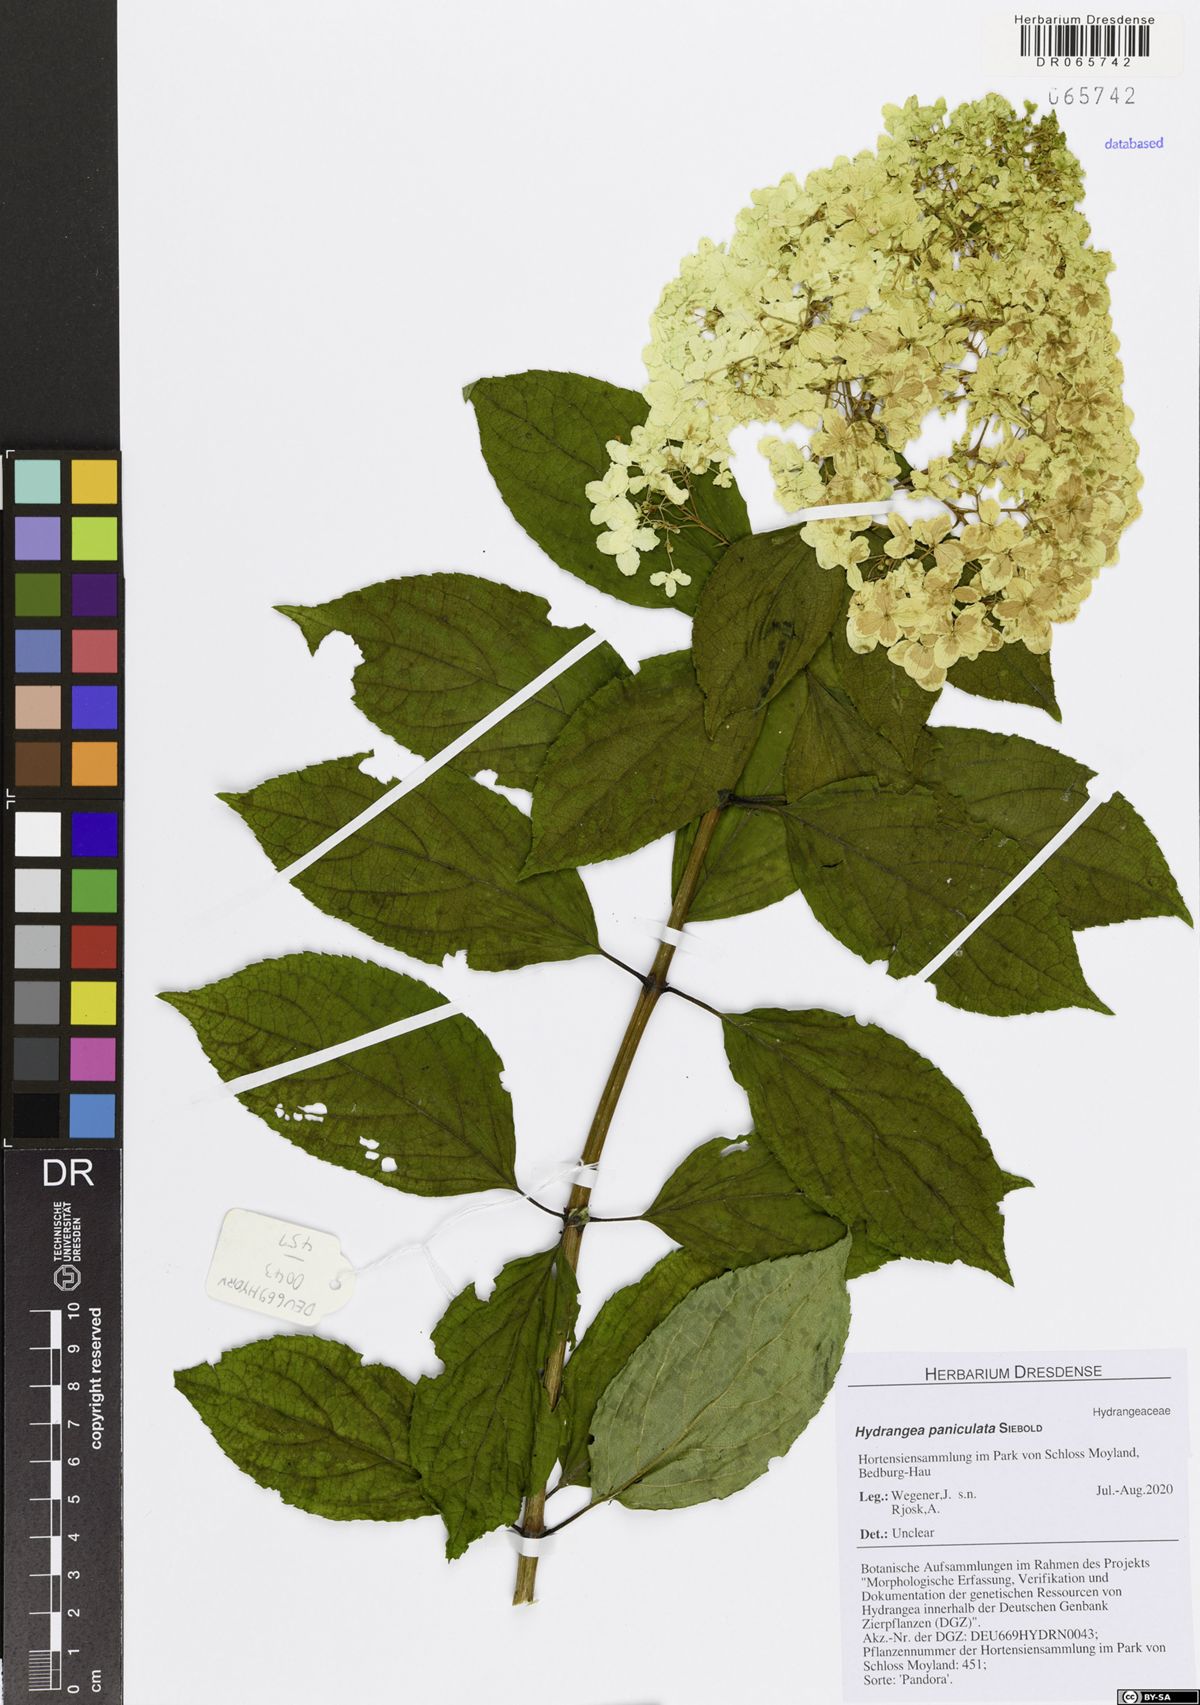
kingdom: Plantae
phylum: Tracheophyta
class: Magnoliopsida
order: Cornales
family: Hydrangeaceae
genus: Hydrangea
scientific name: Hydrangea paniculata
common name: Panicled hydrangea
